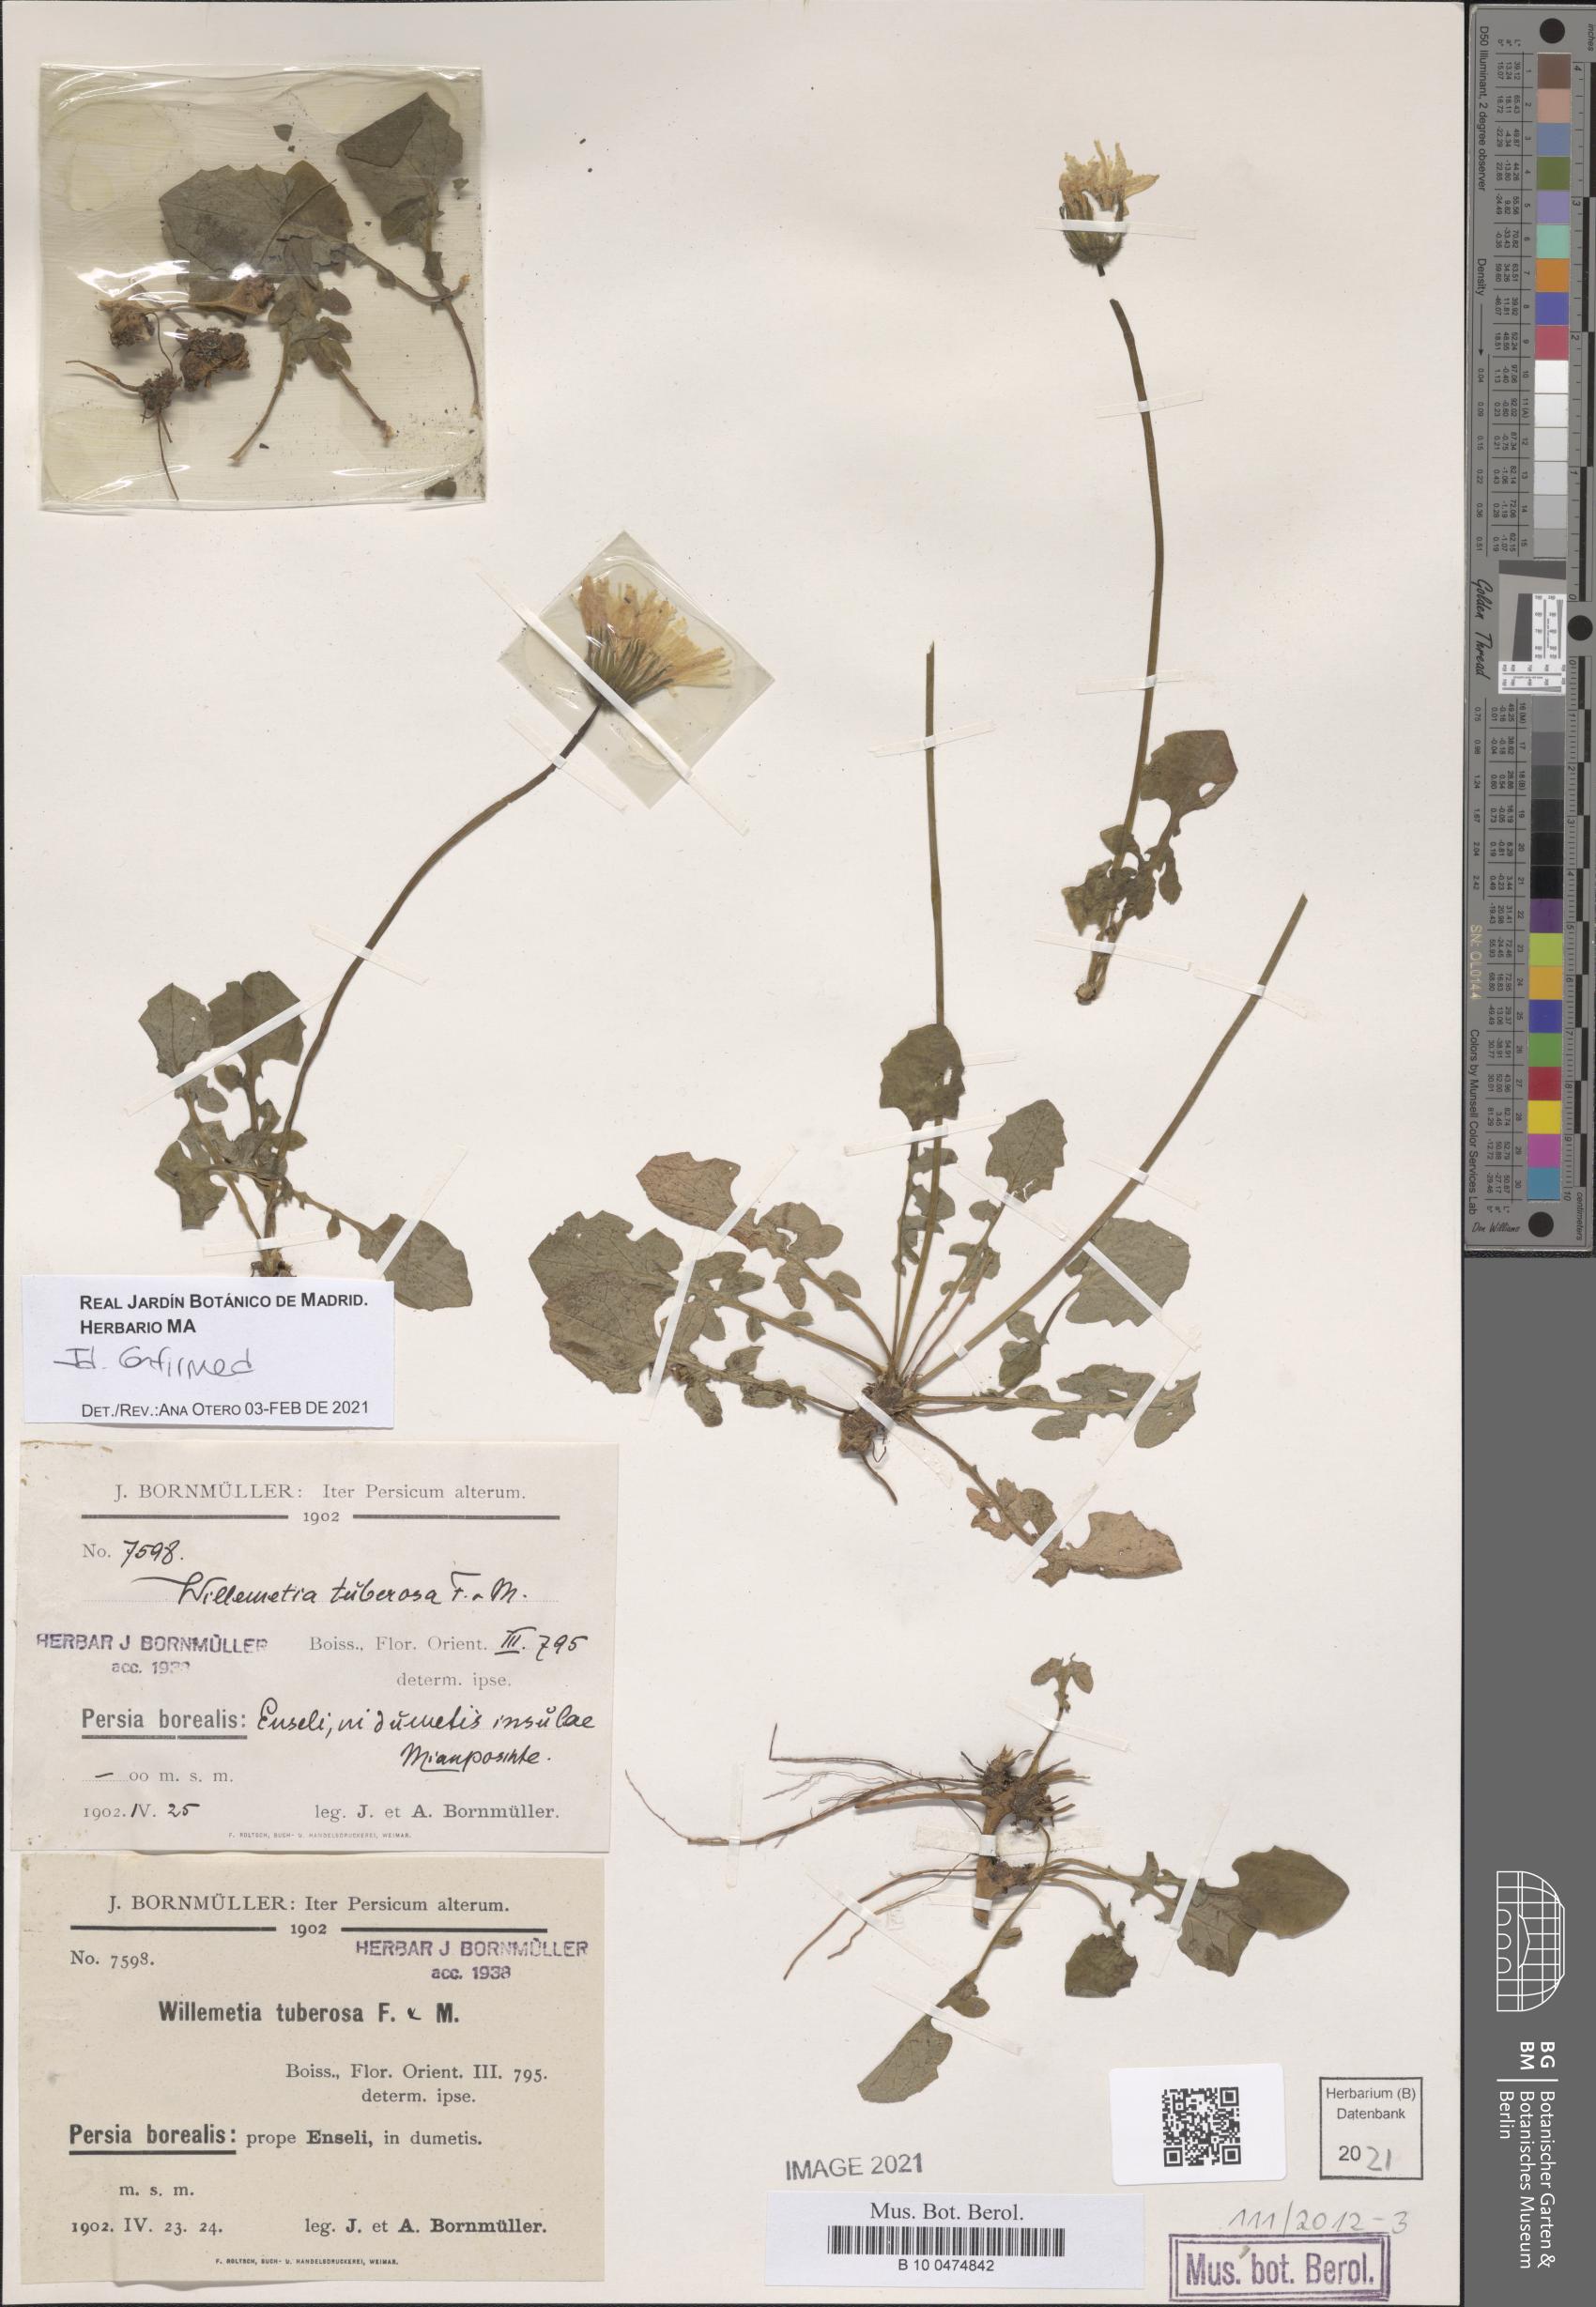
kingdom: Plantae
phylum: Tracheophyta
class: Magnoliopsida
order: Asterales
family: Asteraceae
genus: Willemetia
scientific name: Willemetia tuberosa
